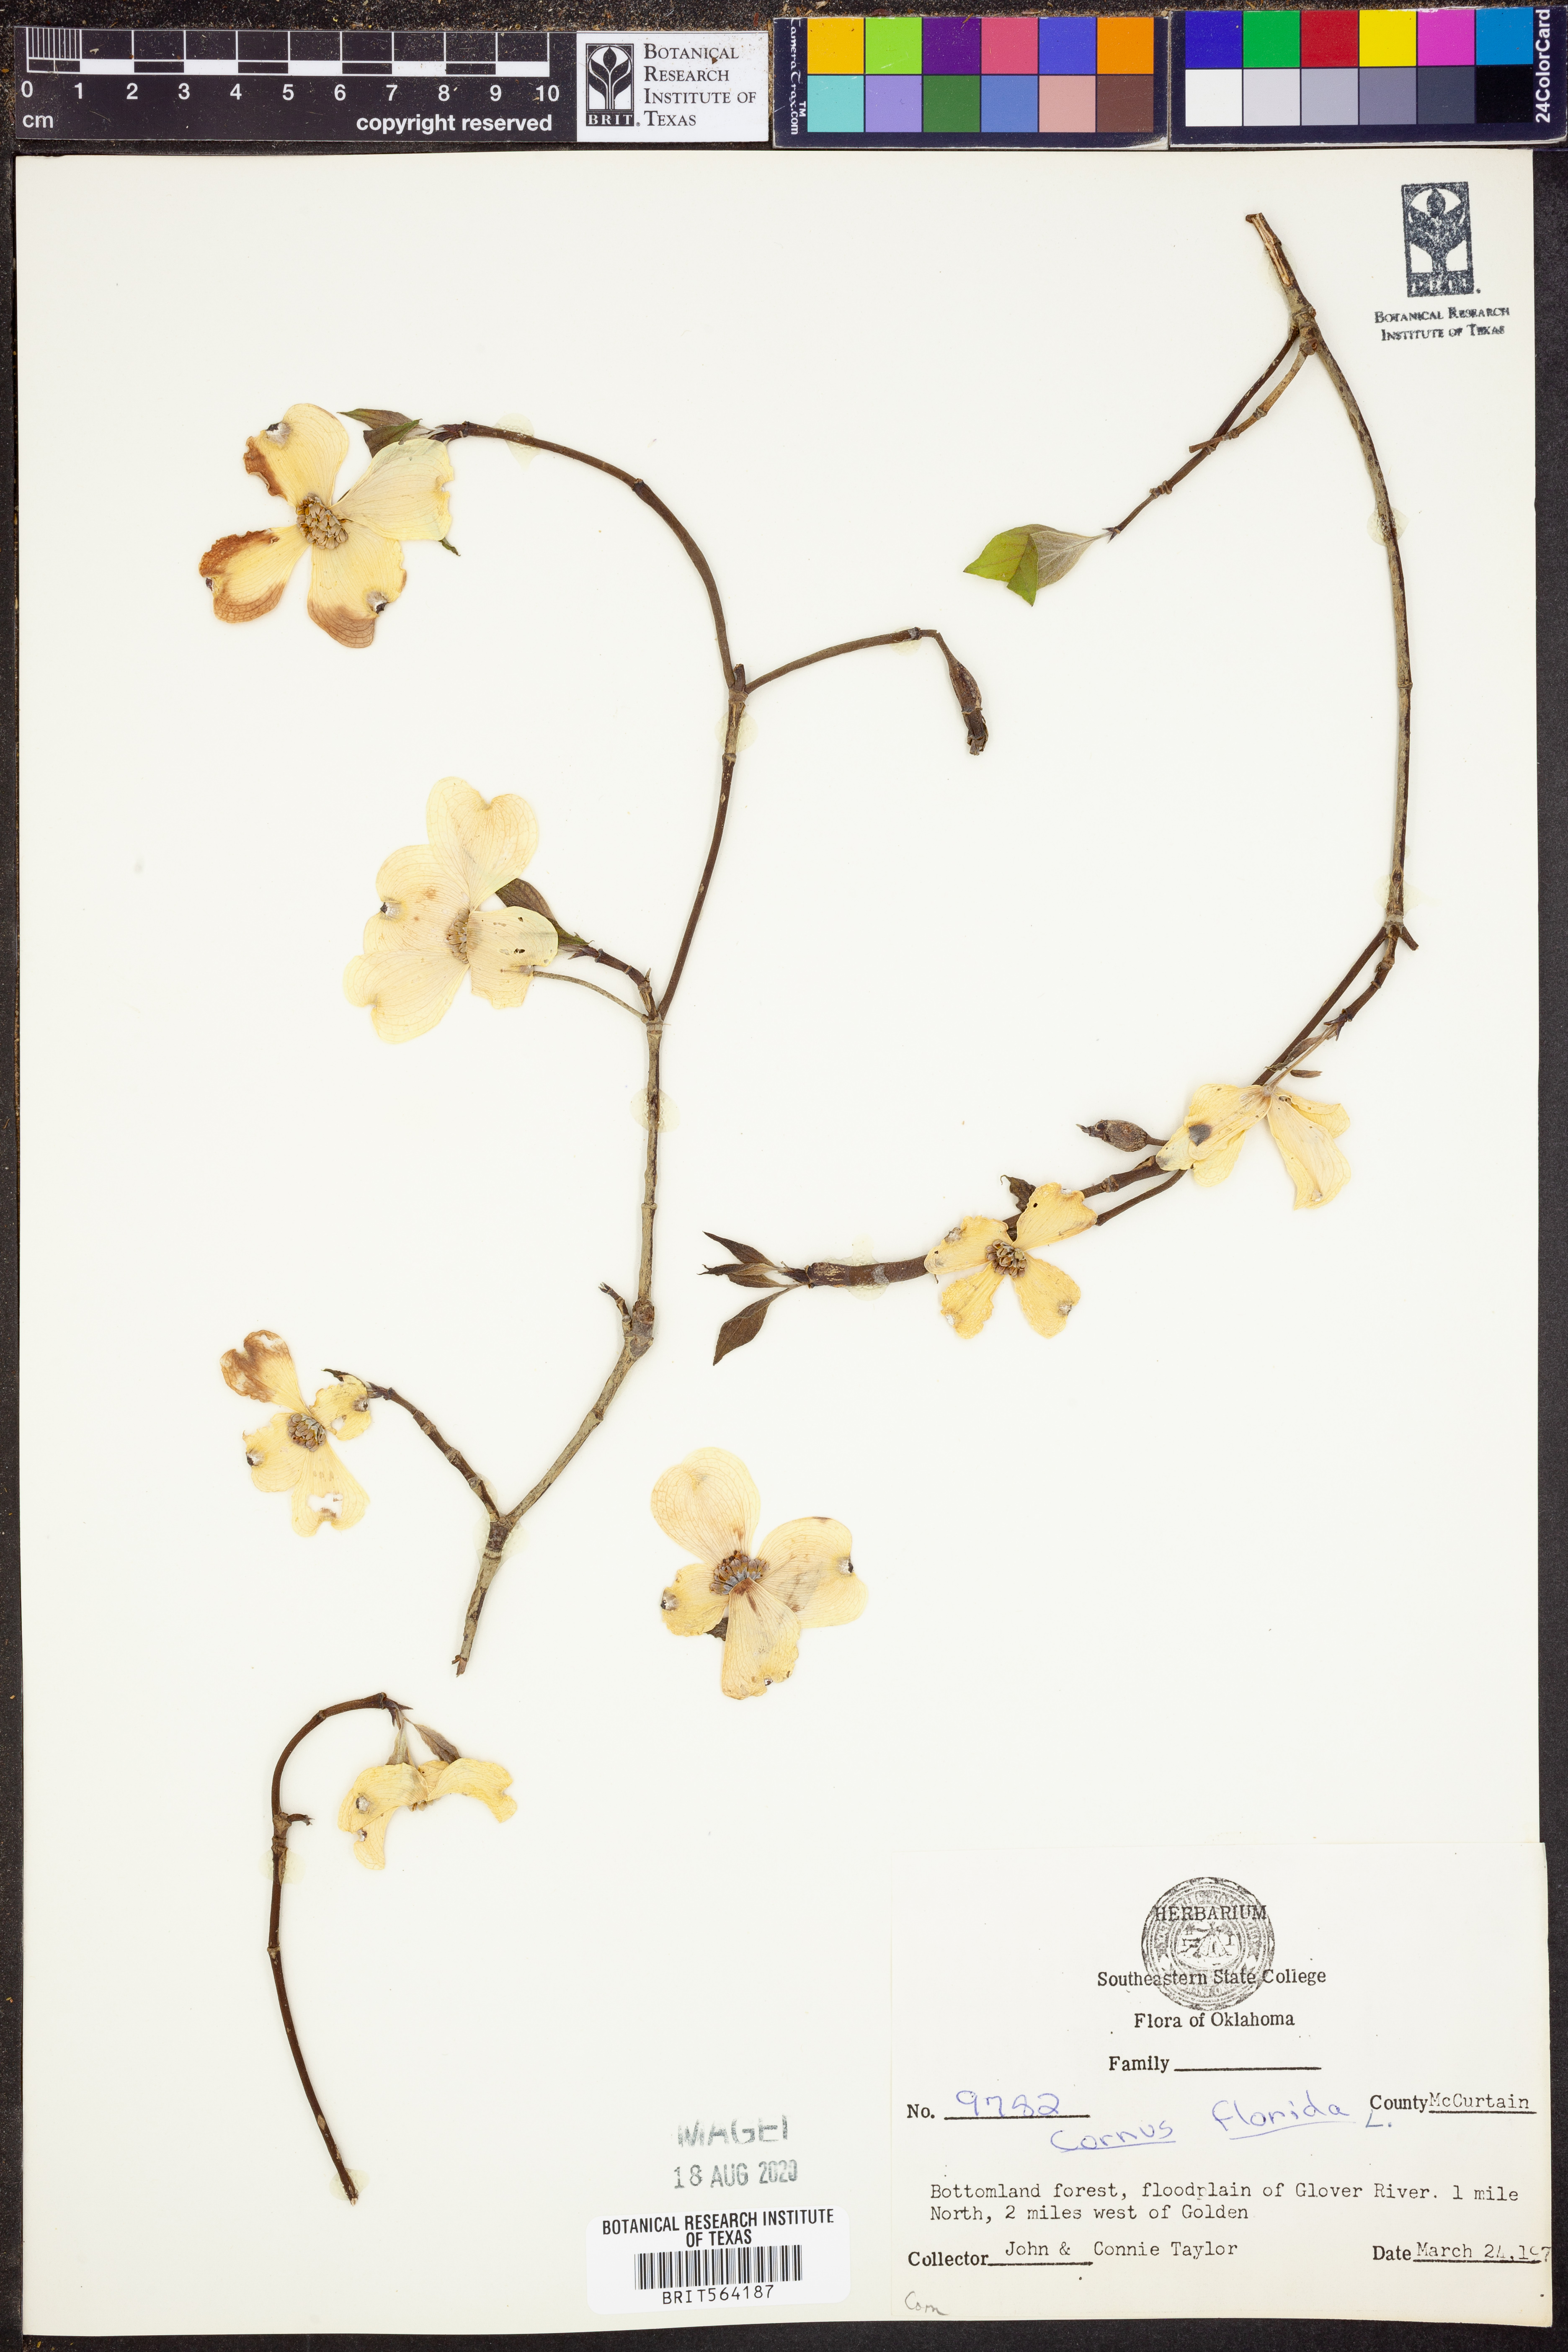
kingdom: Plantae
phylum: Tracheophyta
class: Magnoliopsida
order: Cornales
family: Cornaceae
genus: Cornus
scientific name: Cornus florida
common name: Flowering dogwood
